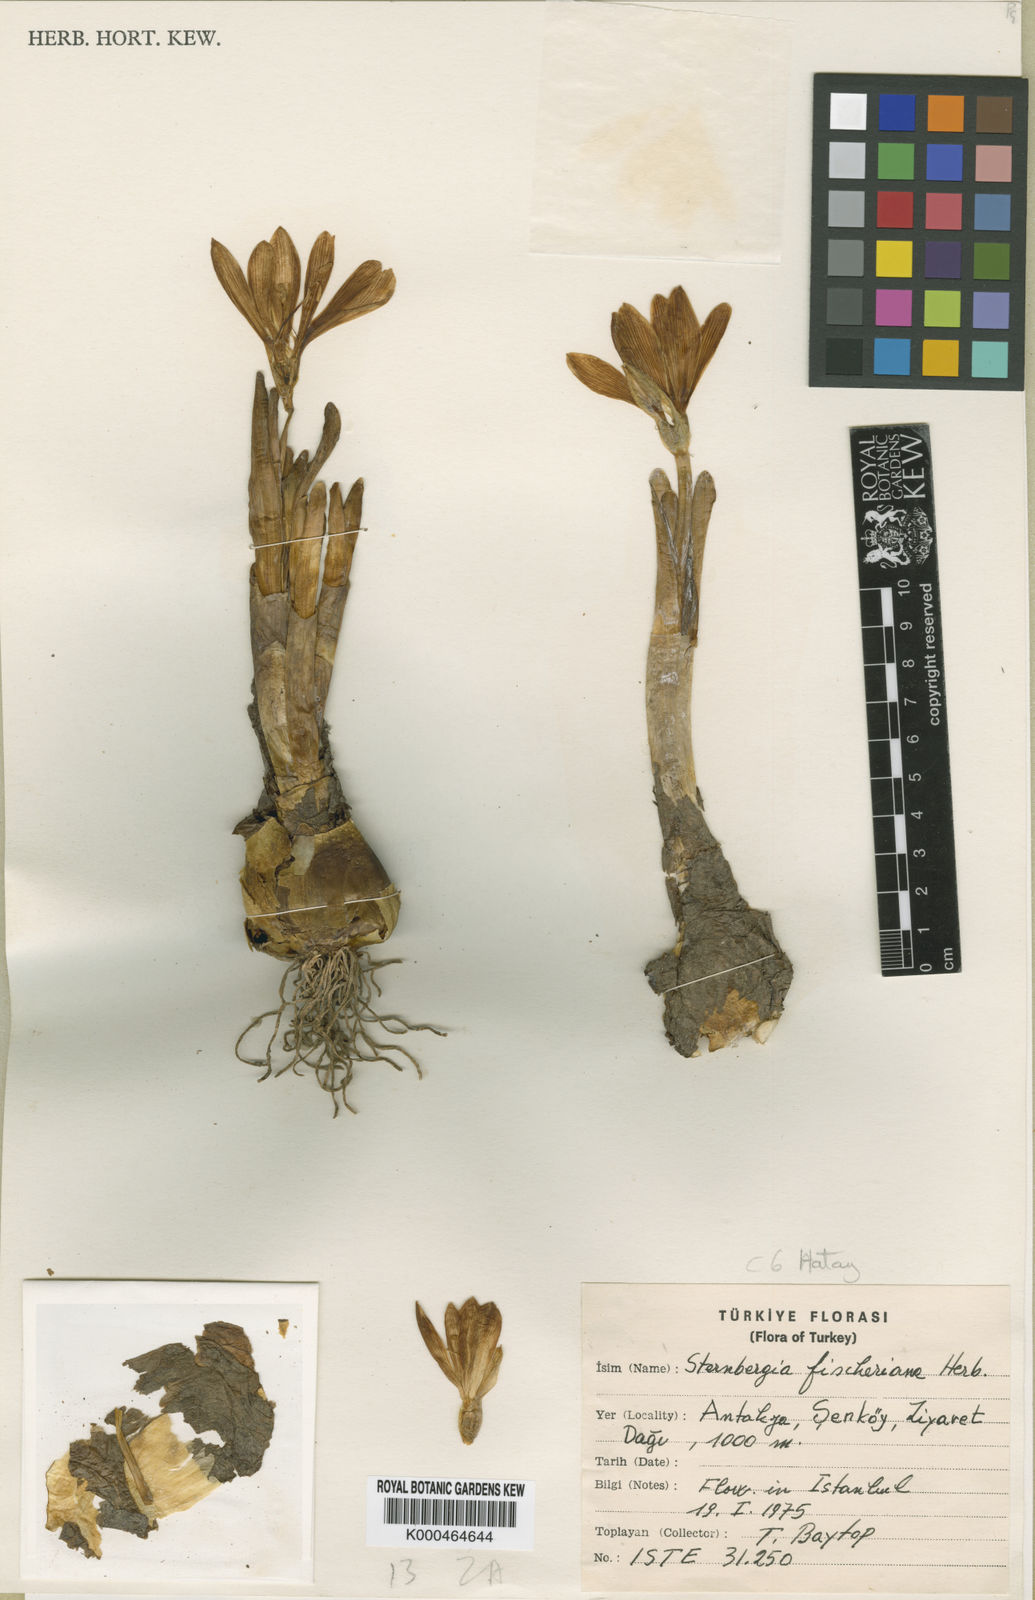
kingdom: Plantae
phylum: Tracheophyta
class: Liliopsida
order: Asparagales
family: Amaryllidaceae
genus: Sternbergia
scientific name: Sternbergia
